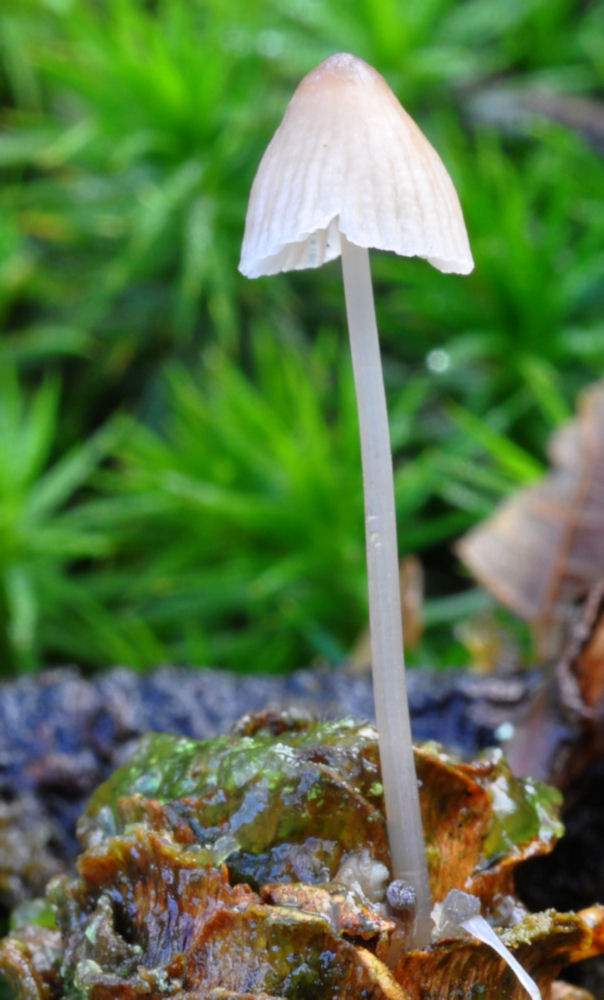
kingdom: Fungi
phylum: Basidiomycota
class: Agaricomycetes
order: Agaricales
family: Mycenaceae
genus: Mycena
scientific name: Mycena metata
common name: rødlig huesvamp
